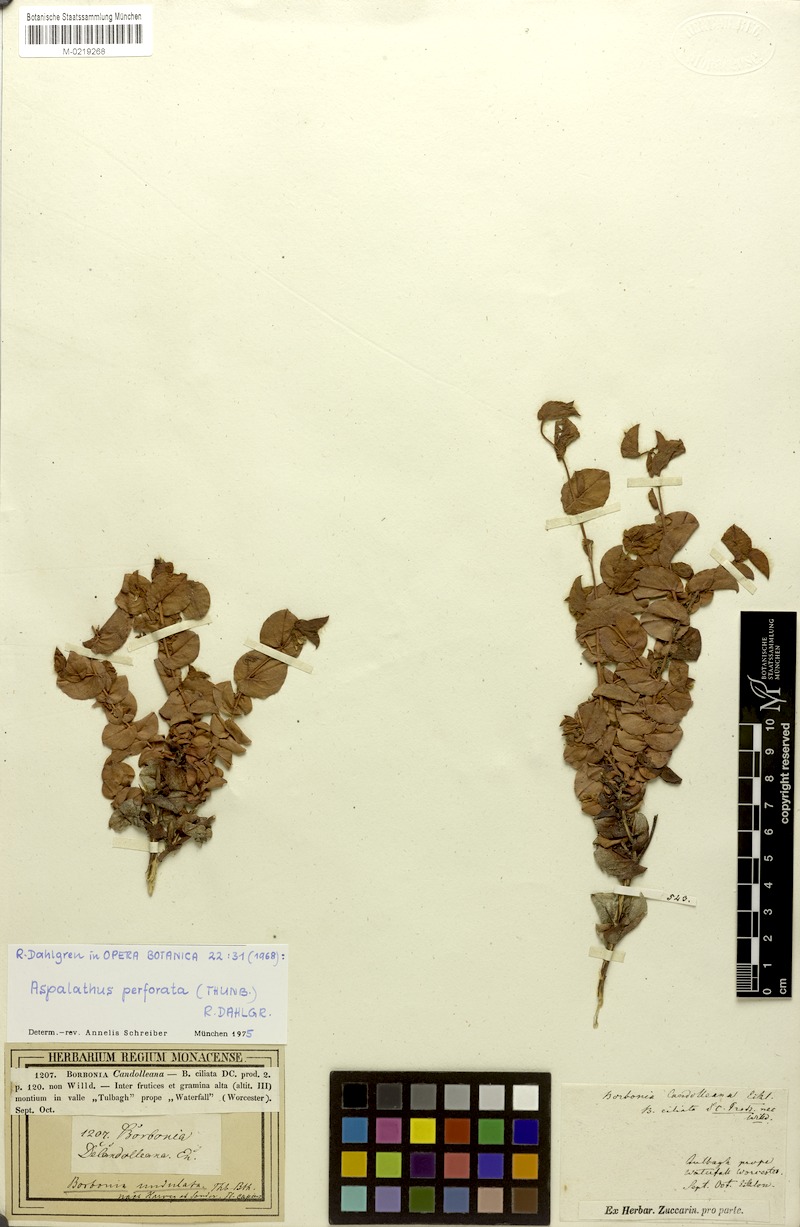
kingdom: Plantae
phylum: Tracheophyta
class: Magnoliopsida
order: Fabales
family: Fabaceae
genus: Aspalathus
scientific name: Aspalathus perforata
